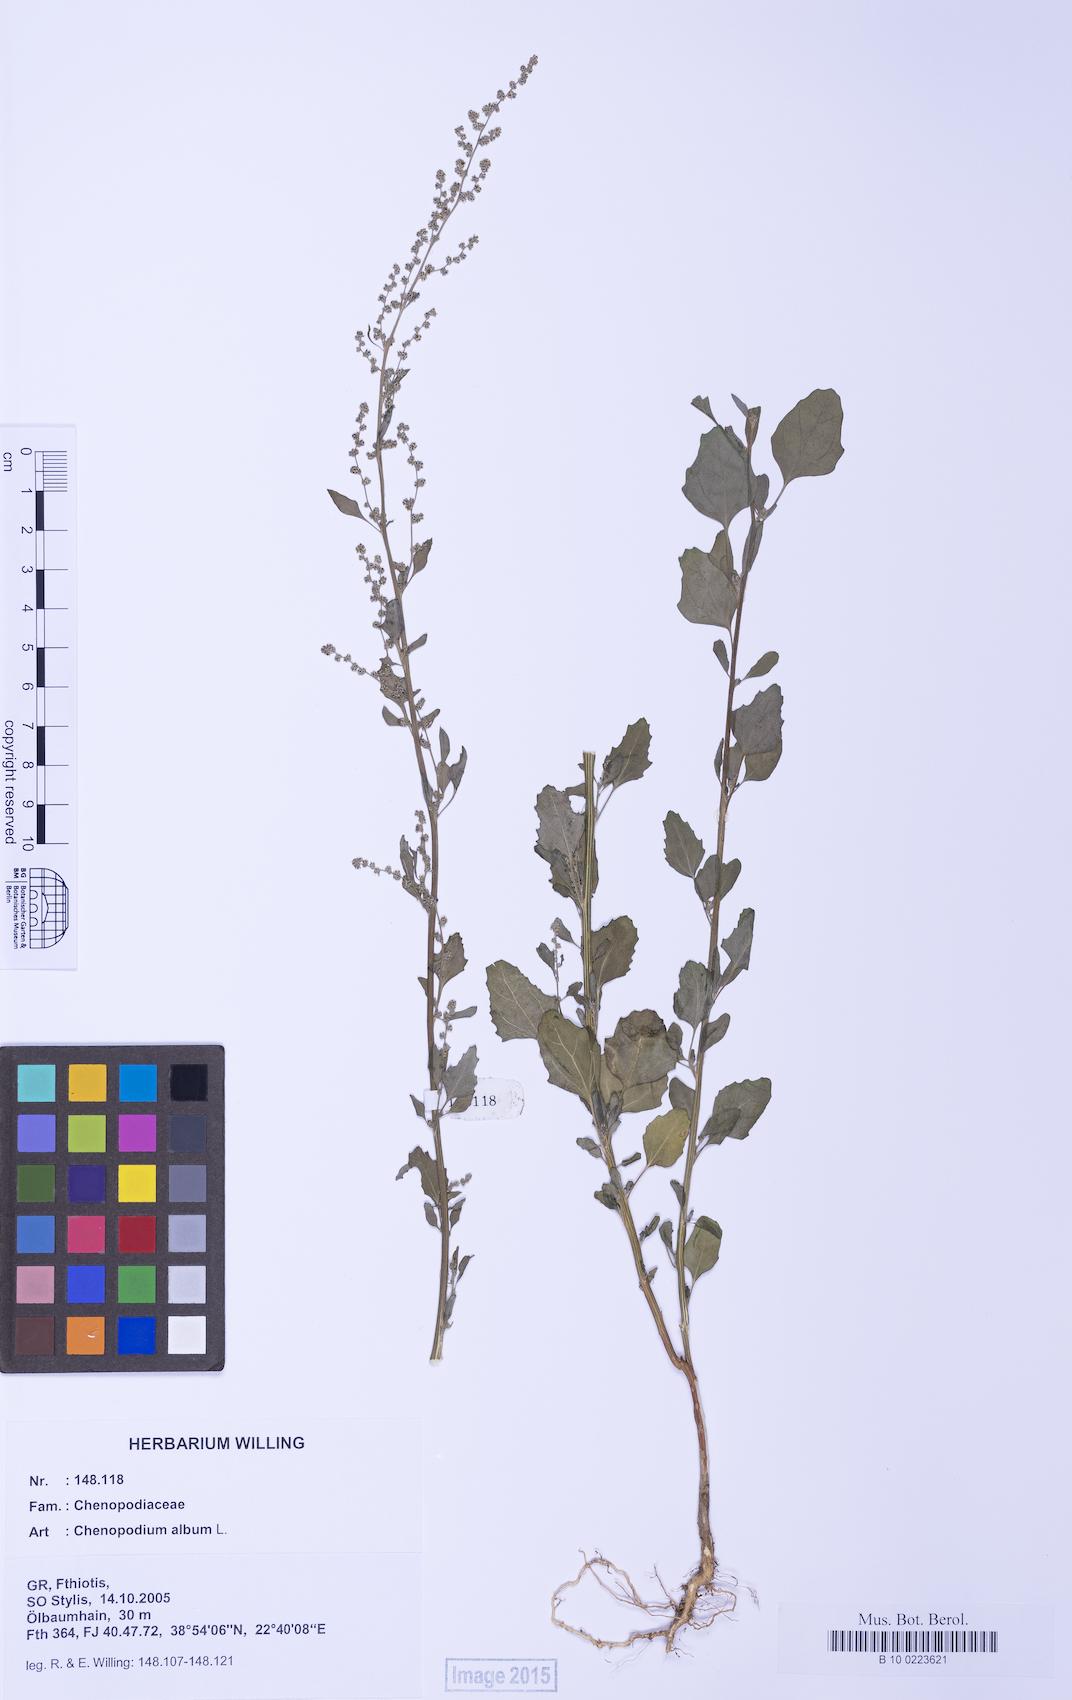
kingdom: Plantae
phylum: Tracheophyta
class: Magnoliopsida
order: Caryophyllales
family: Amaranthaceae
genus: Chenopodium
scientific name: Chenopodium album
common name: Fat-hen
